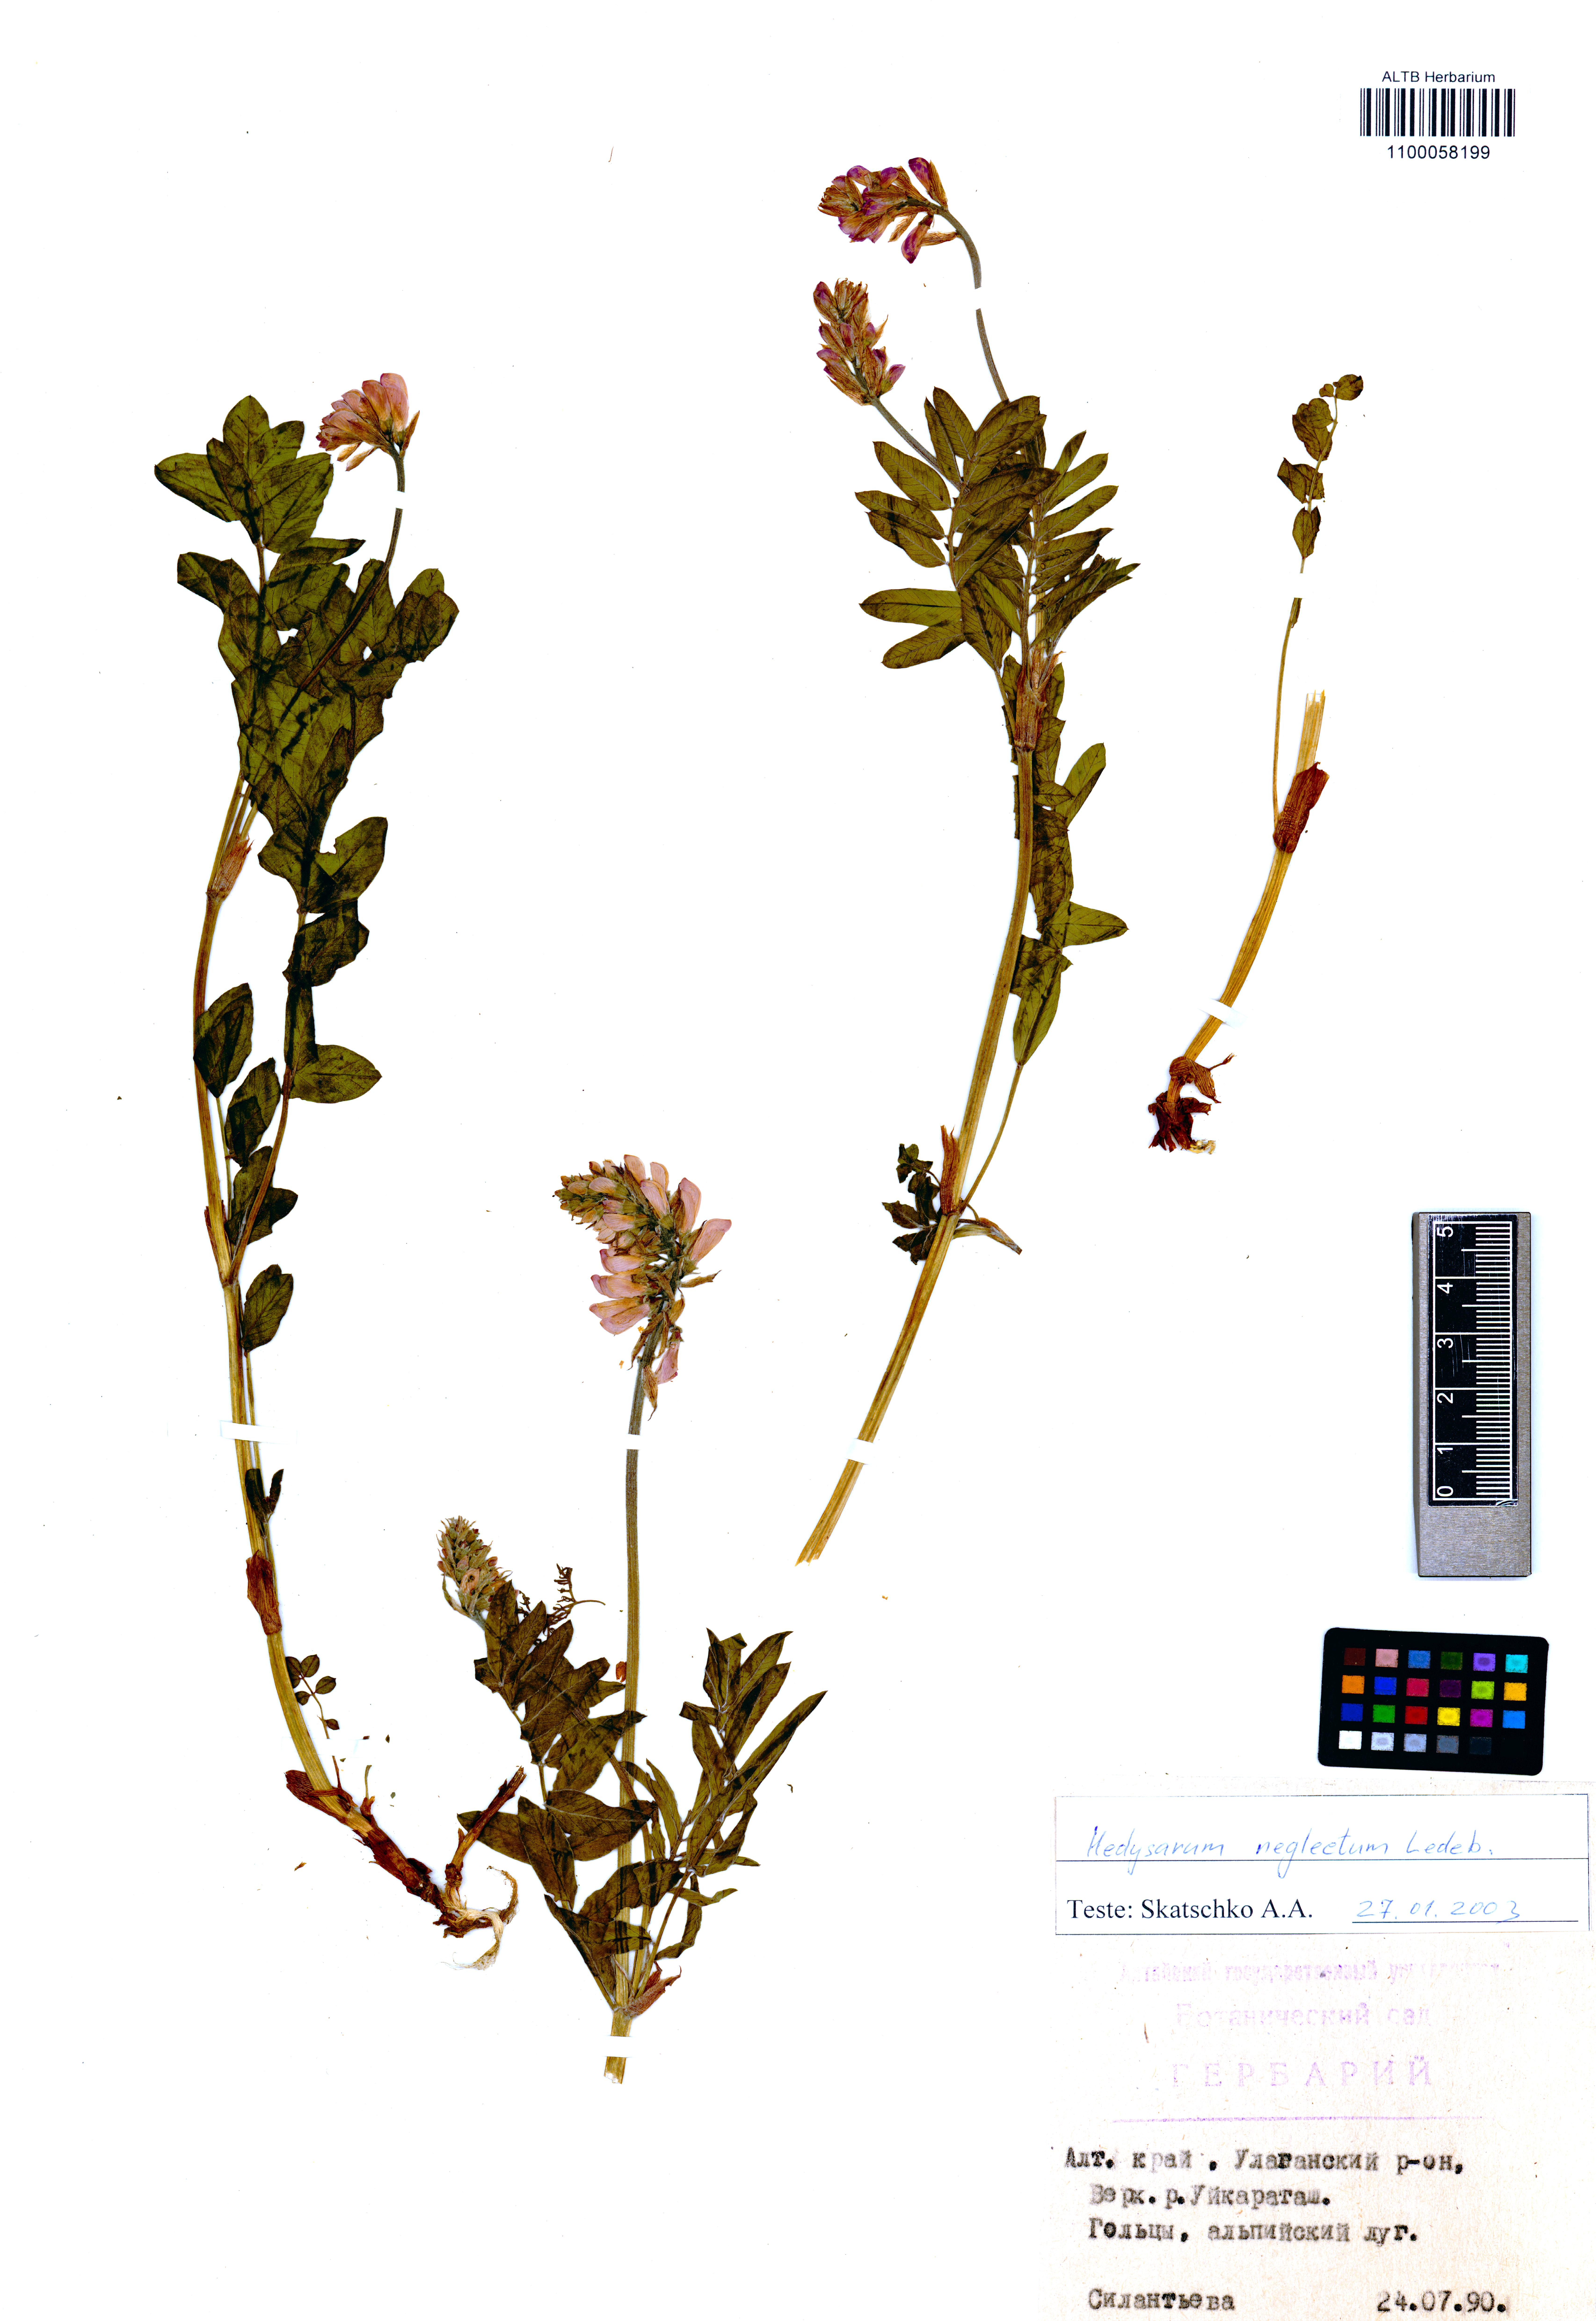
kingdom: Plantae
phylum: Tracheophyta
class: Magnoliopsida
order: Fabales
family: Fabaceae
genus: Hedysarum
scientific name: Hedysarum neglectum
